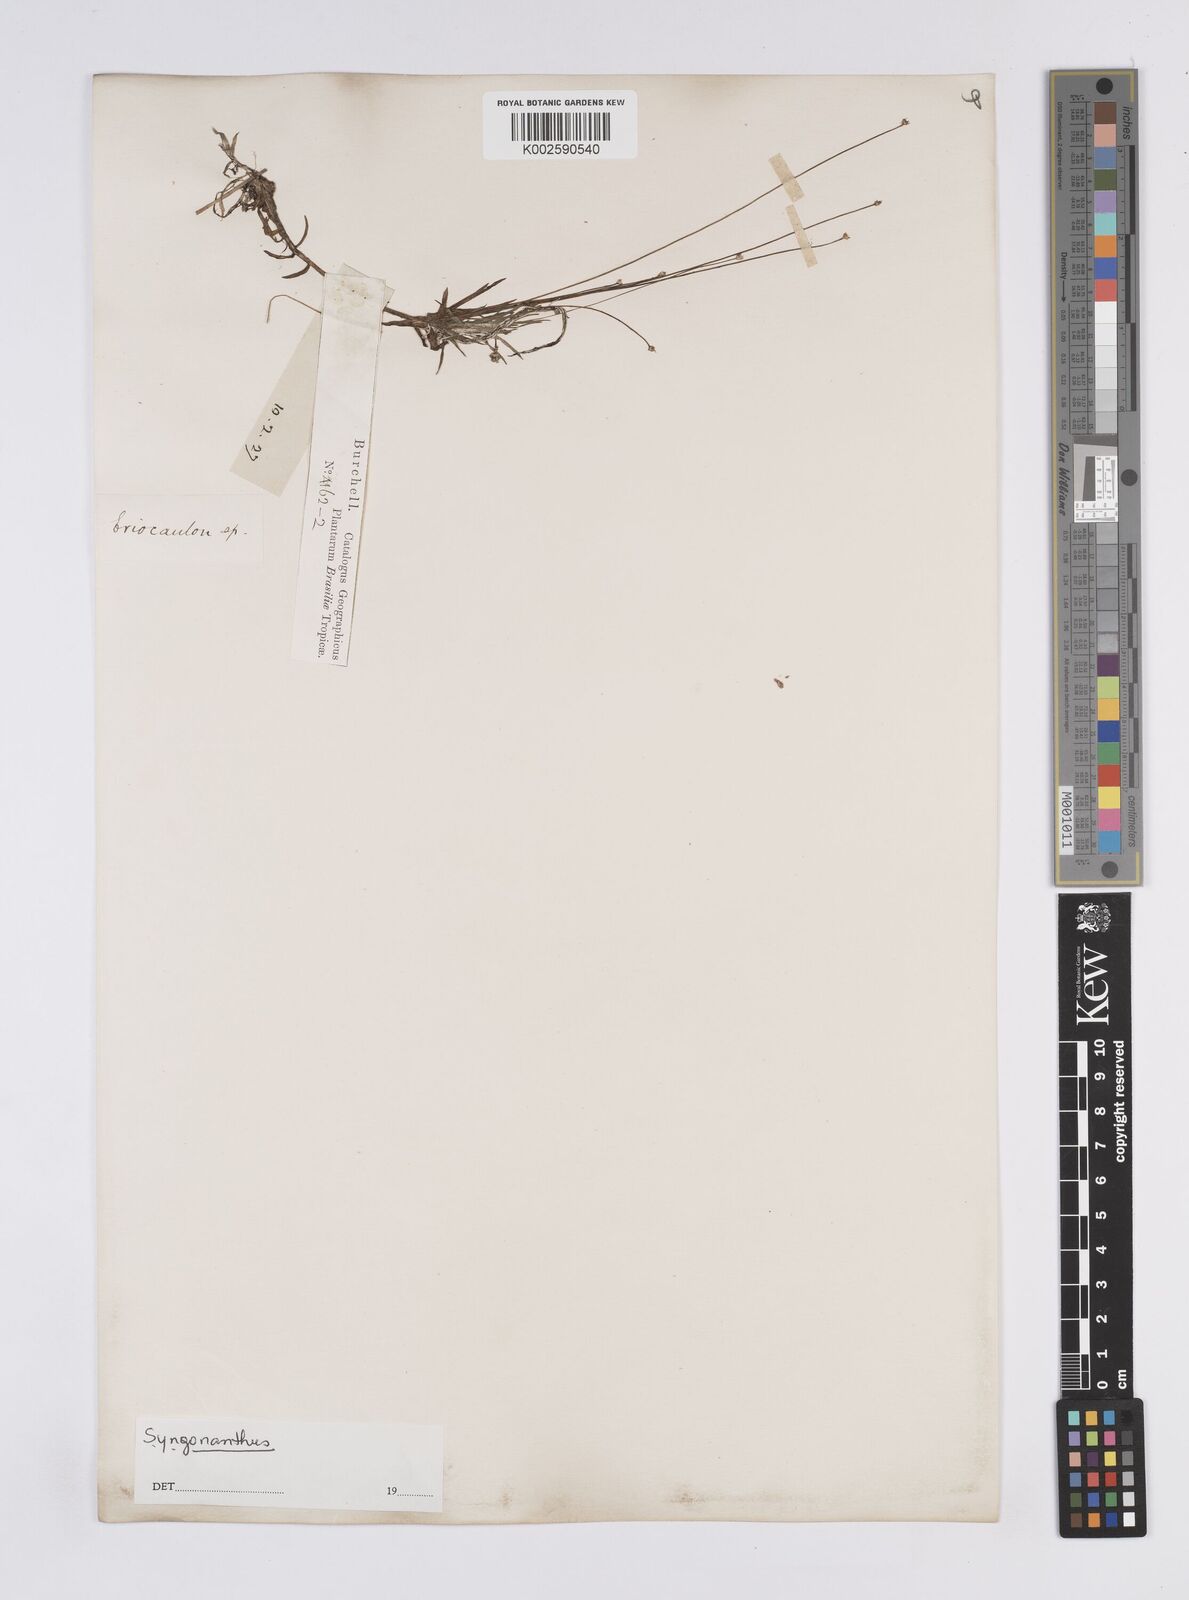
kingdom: Plantae
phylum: Tracheophyta
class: Liliopsida
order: Poales
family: Eriocaulaceae
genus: Syngonanthus
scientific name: Syngonanthus
